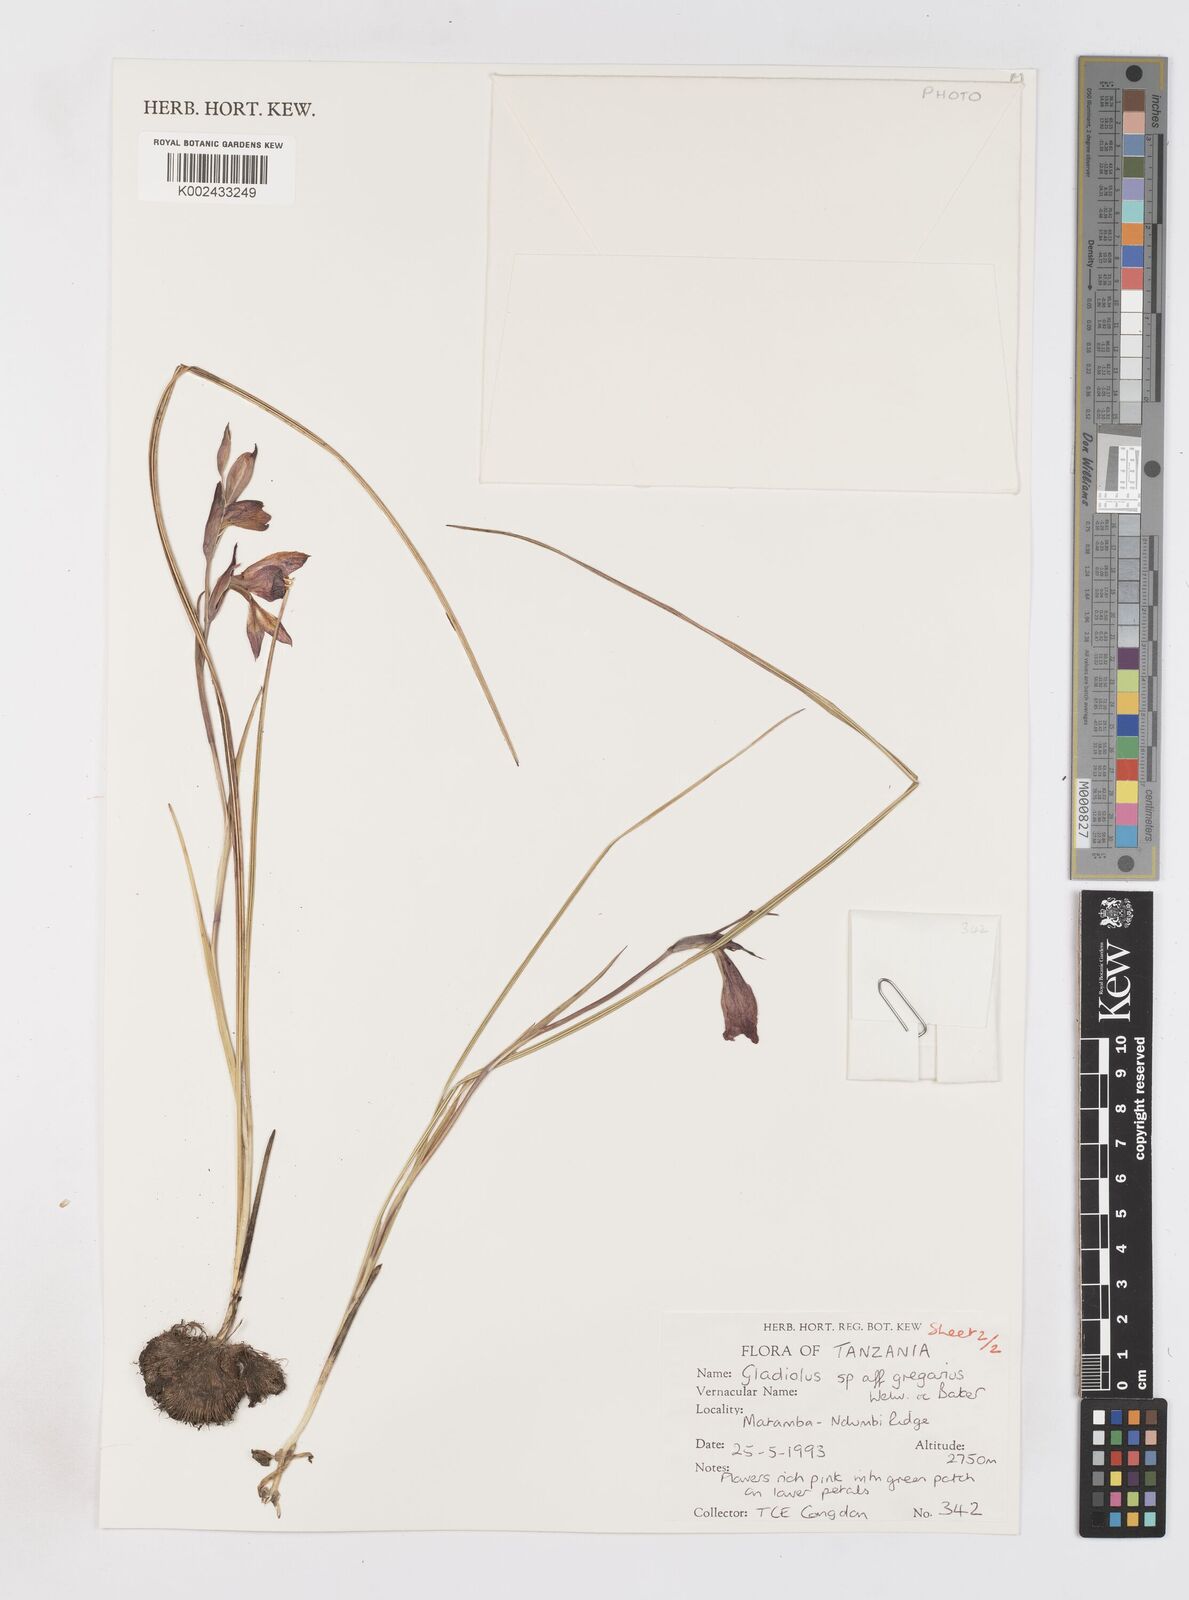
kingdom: Plantae
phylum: Tracheophyta
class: Liliopsida
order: Asparagales
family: Iridaceae
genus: Gladiolus
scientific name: Gladiolus gregarius
